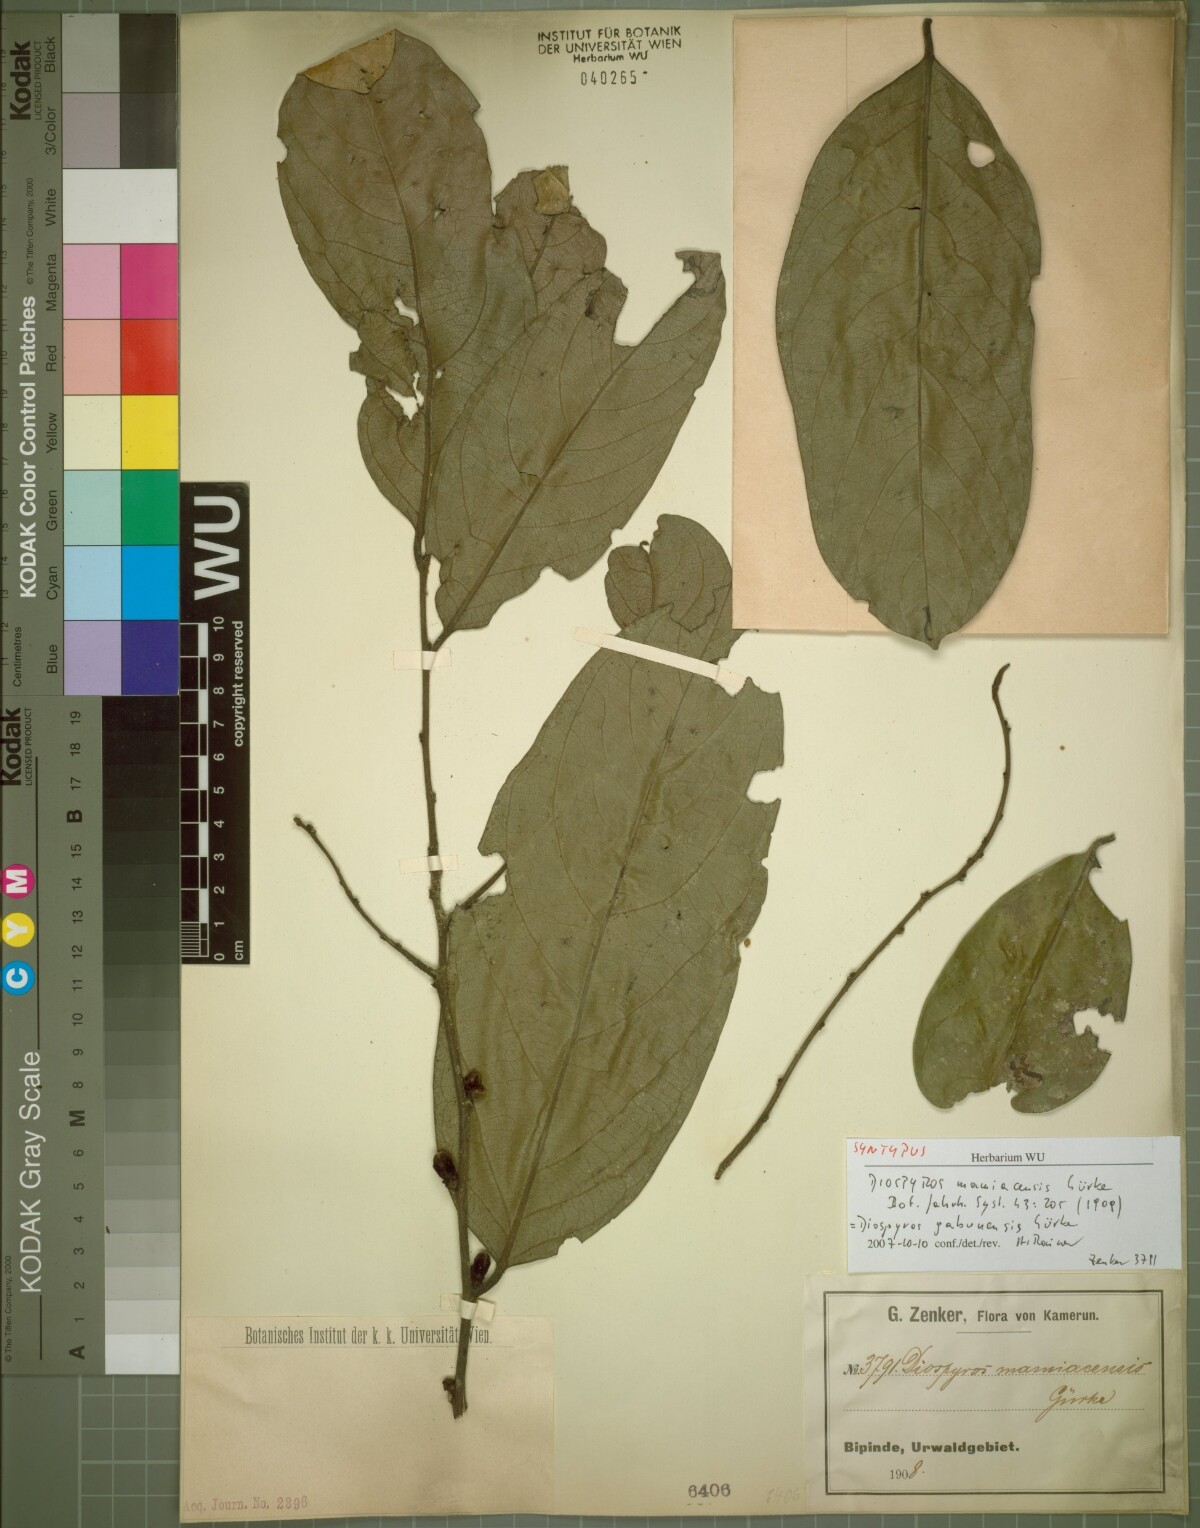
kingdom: Plantae
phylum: Tracheophyta
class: Magnoliopsida
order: Ericales
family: Ebenaceae
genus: Diospyros
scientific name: Diospyros gabunensis
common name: Flint bark tree
